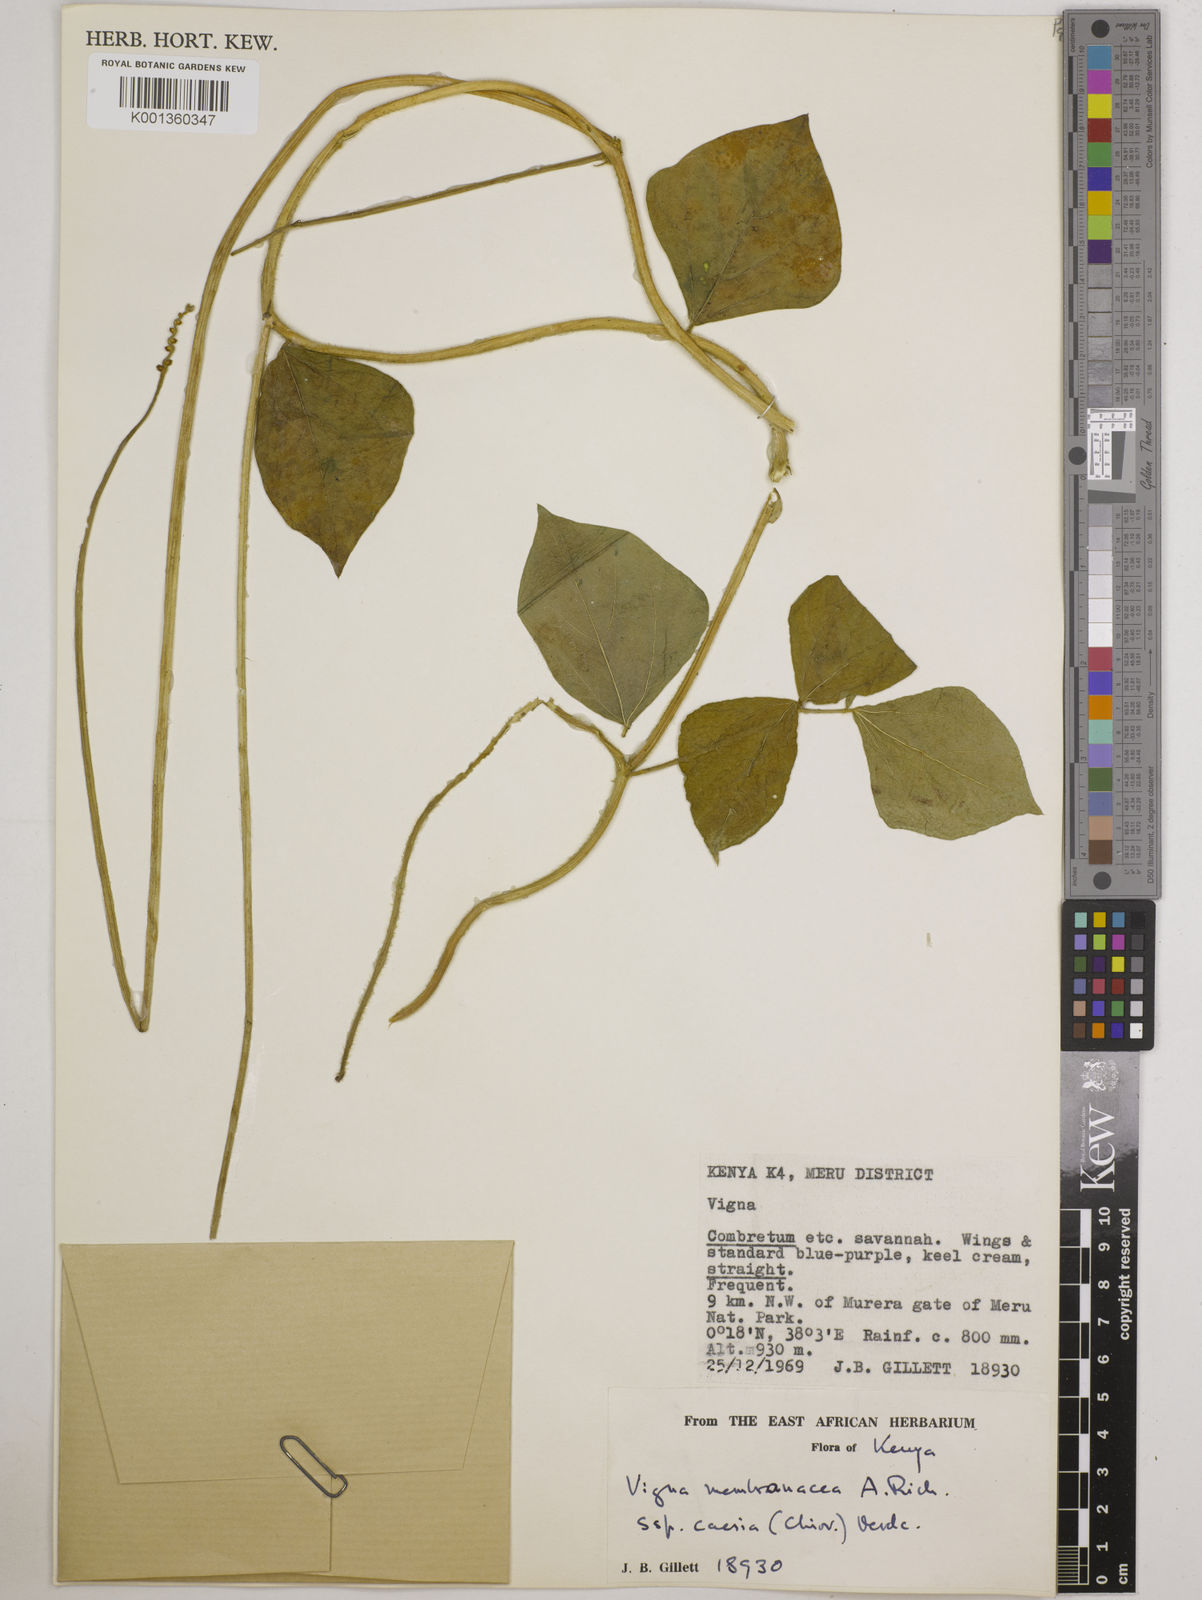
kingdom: Plantae
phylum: Tracheophyta
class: Magnoliopsida
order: Fabales
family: Fabaceae
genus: Vigna
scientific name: Vigna
